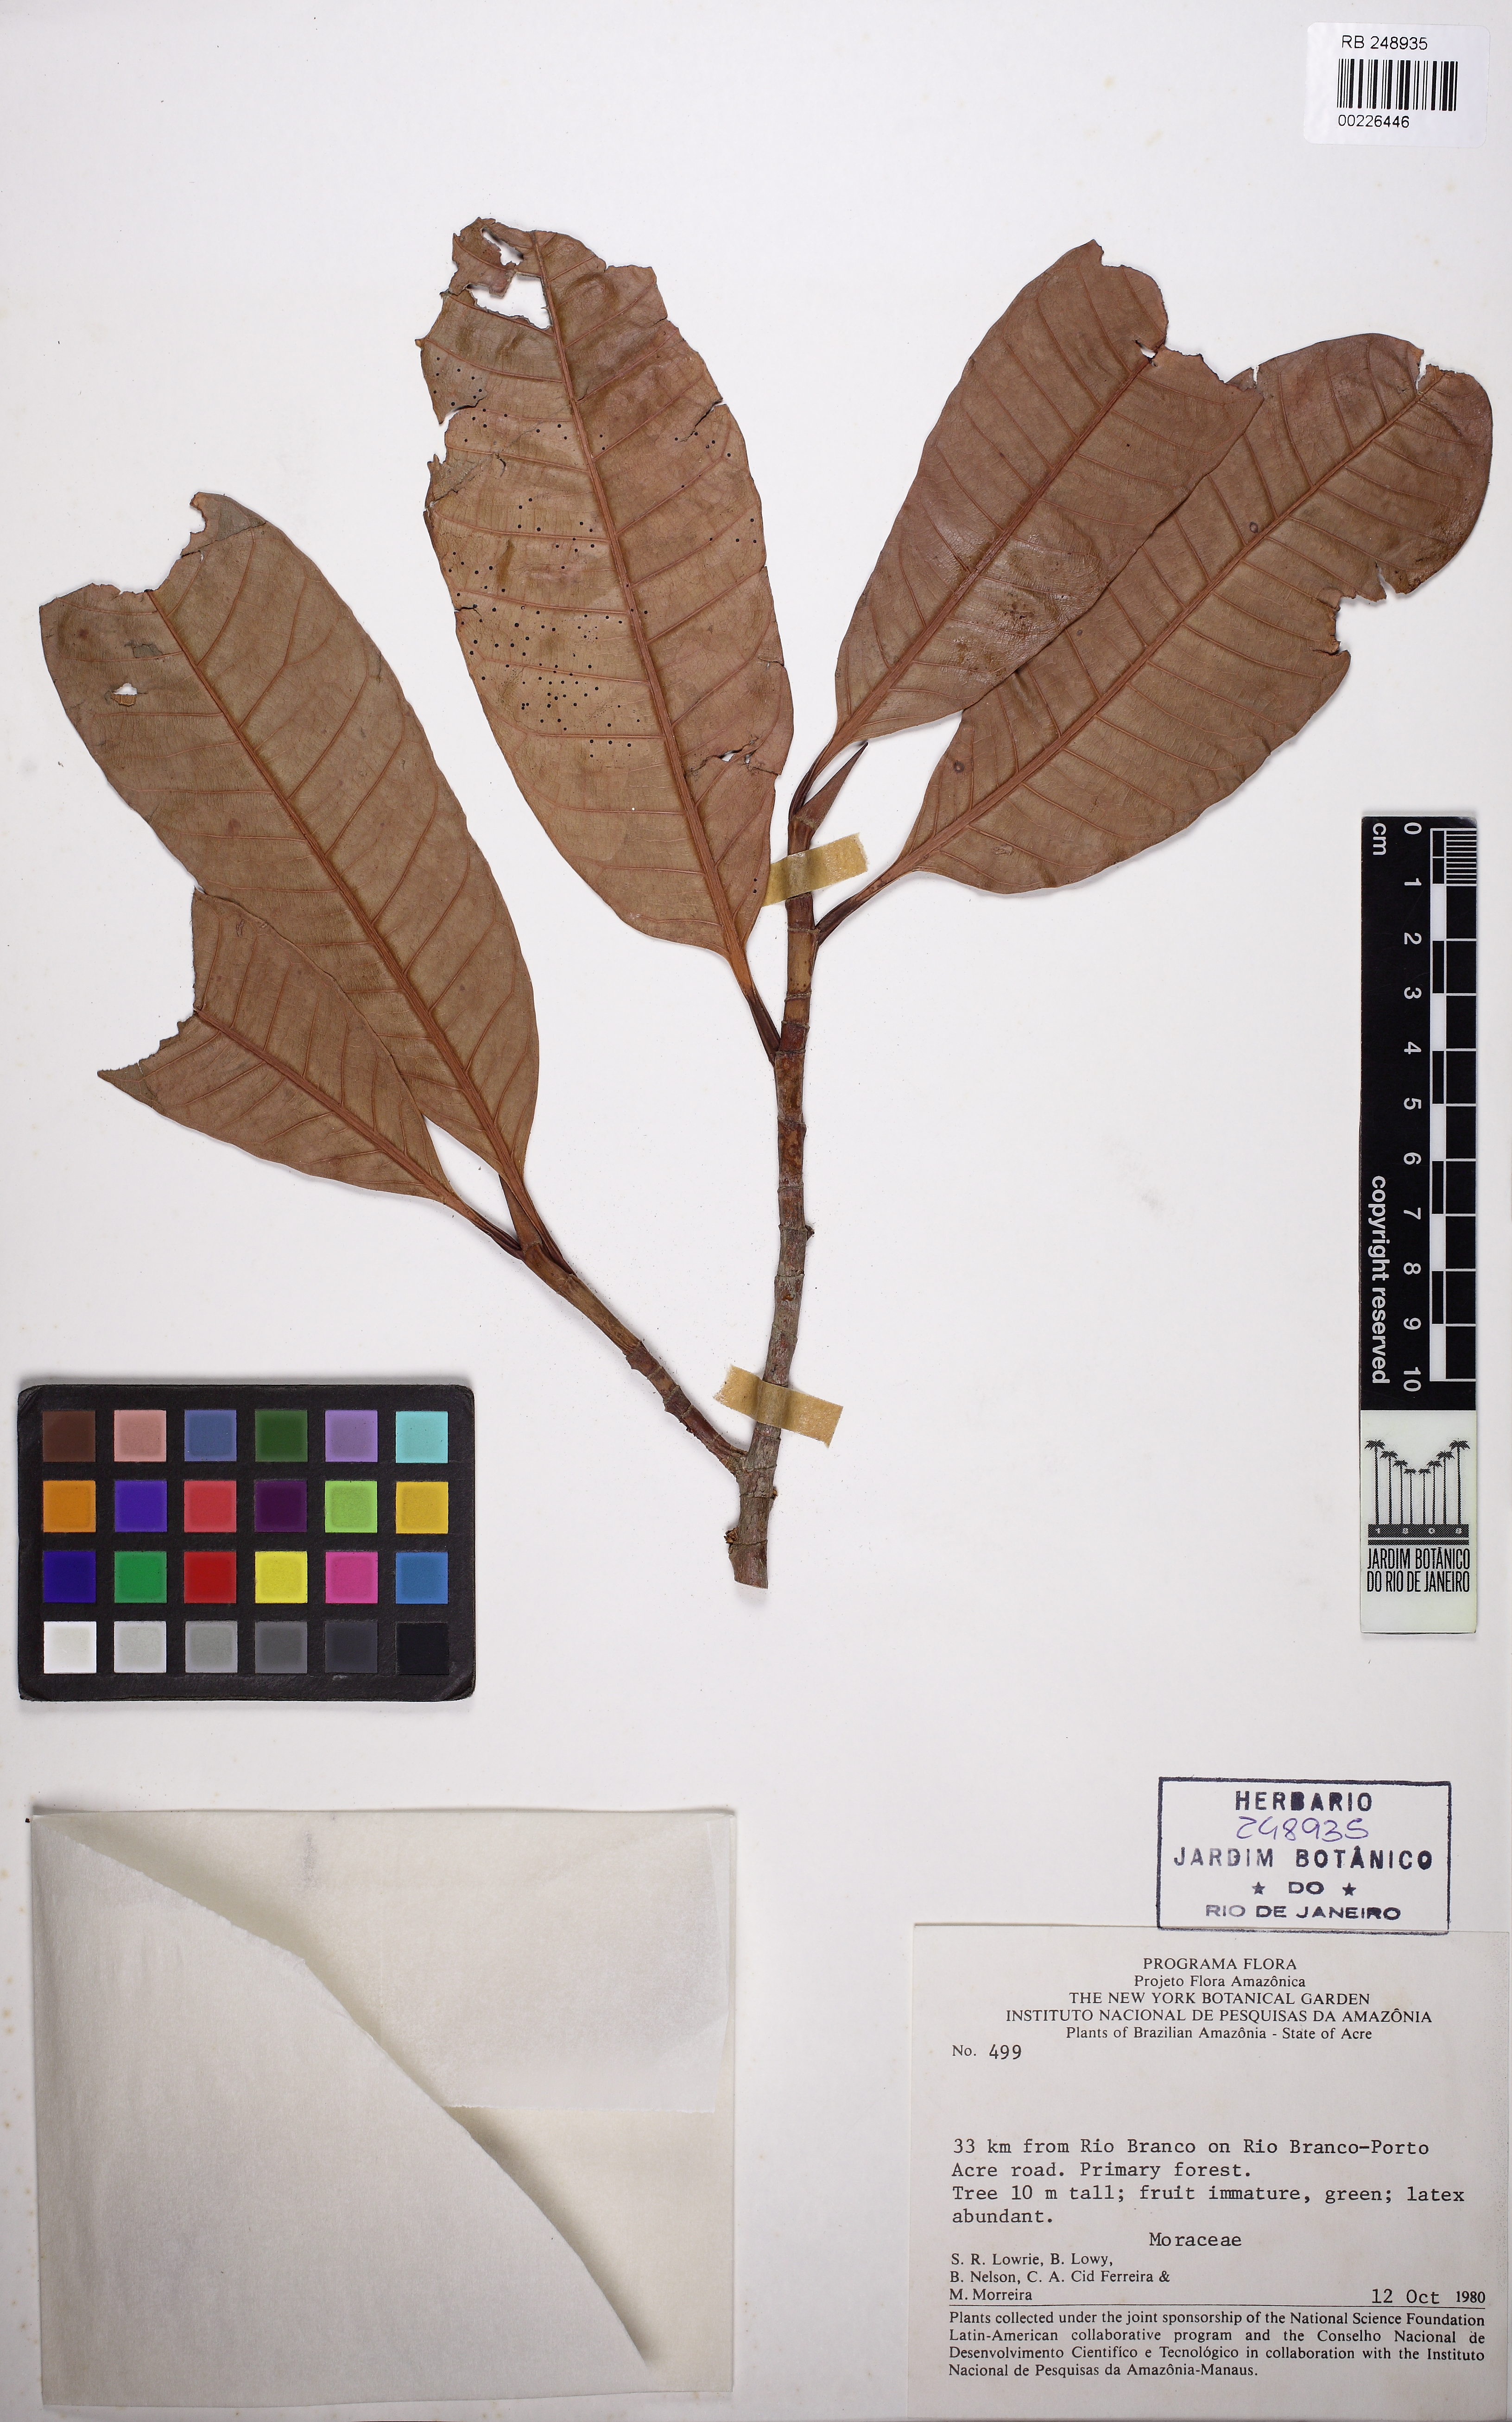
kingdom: Plantae
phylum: Tracheophyta
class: Magnoliopsida
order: Rosales
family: Moraceae
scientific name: Moraceae
